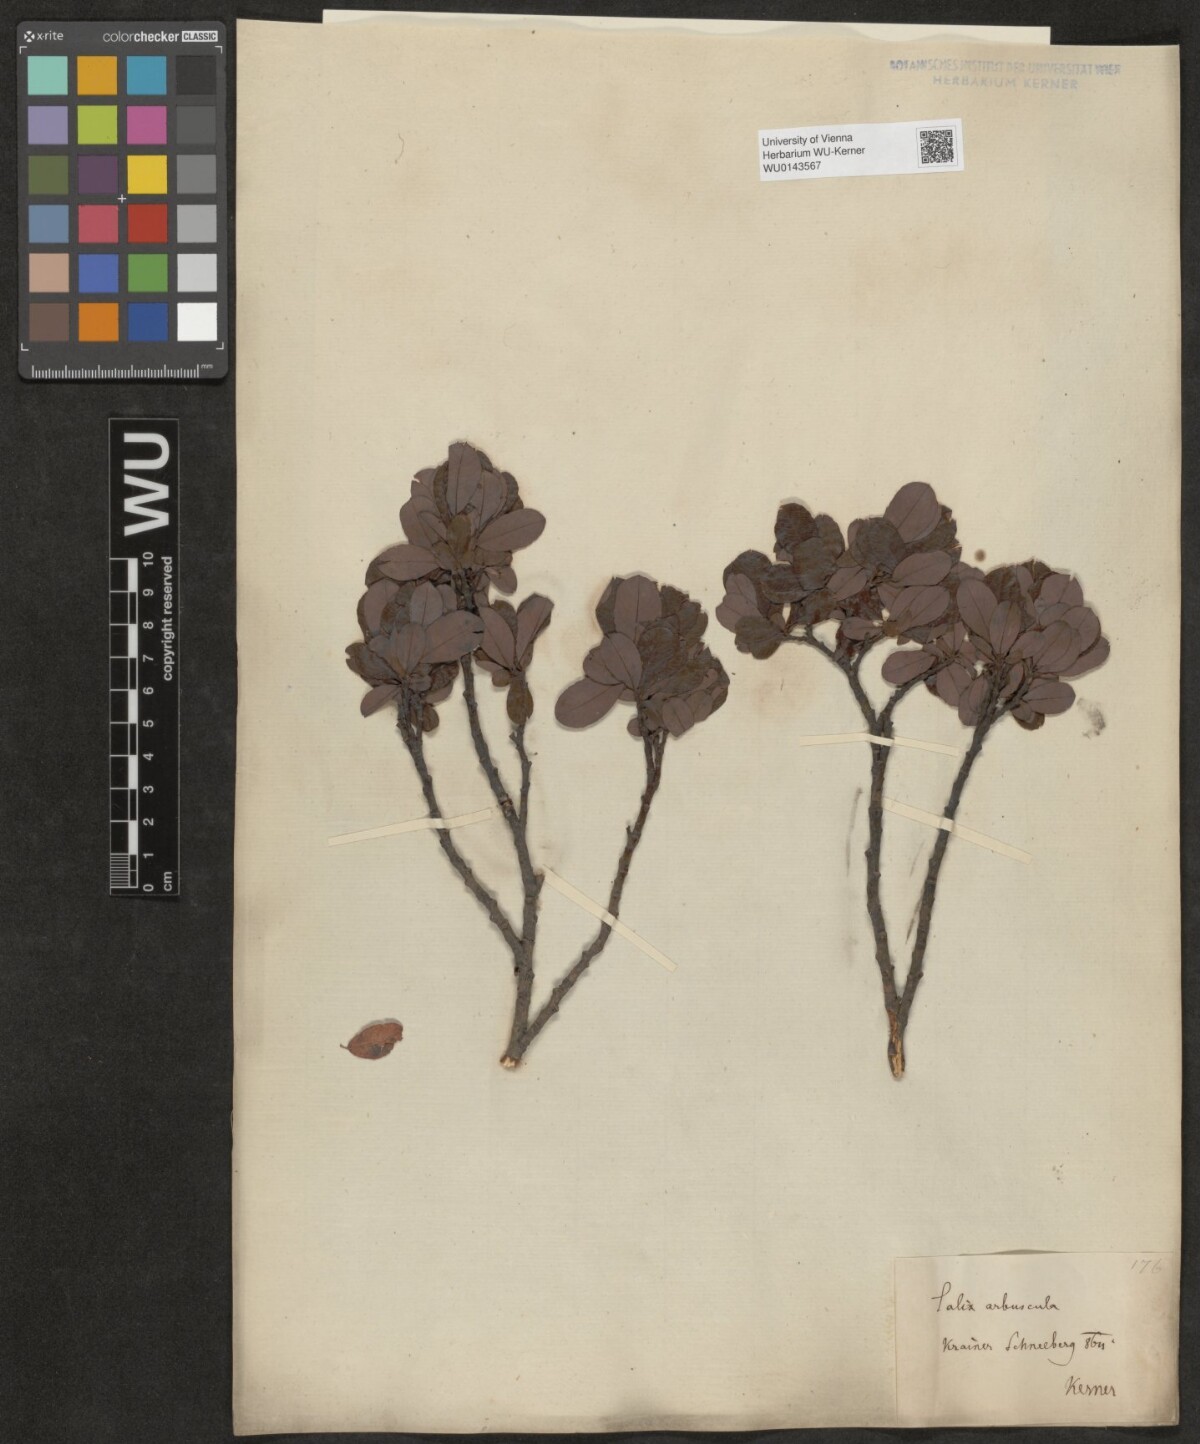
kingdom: Plantae
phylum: Tracheophyta
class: Magnoliopsida
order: Malpighiales
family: Salicaceae
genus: Salix
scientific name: Salix waldsteiniana
